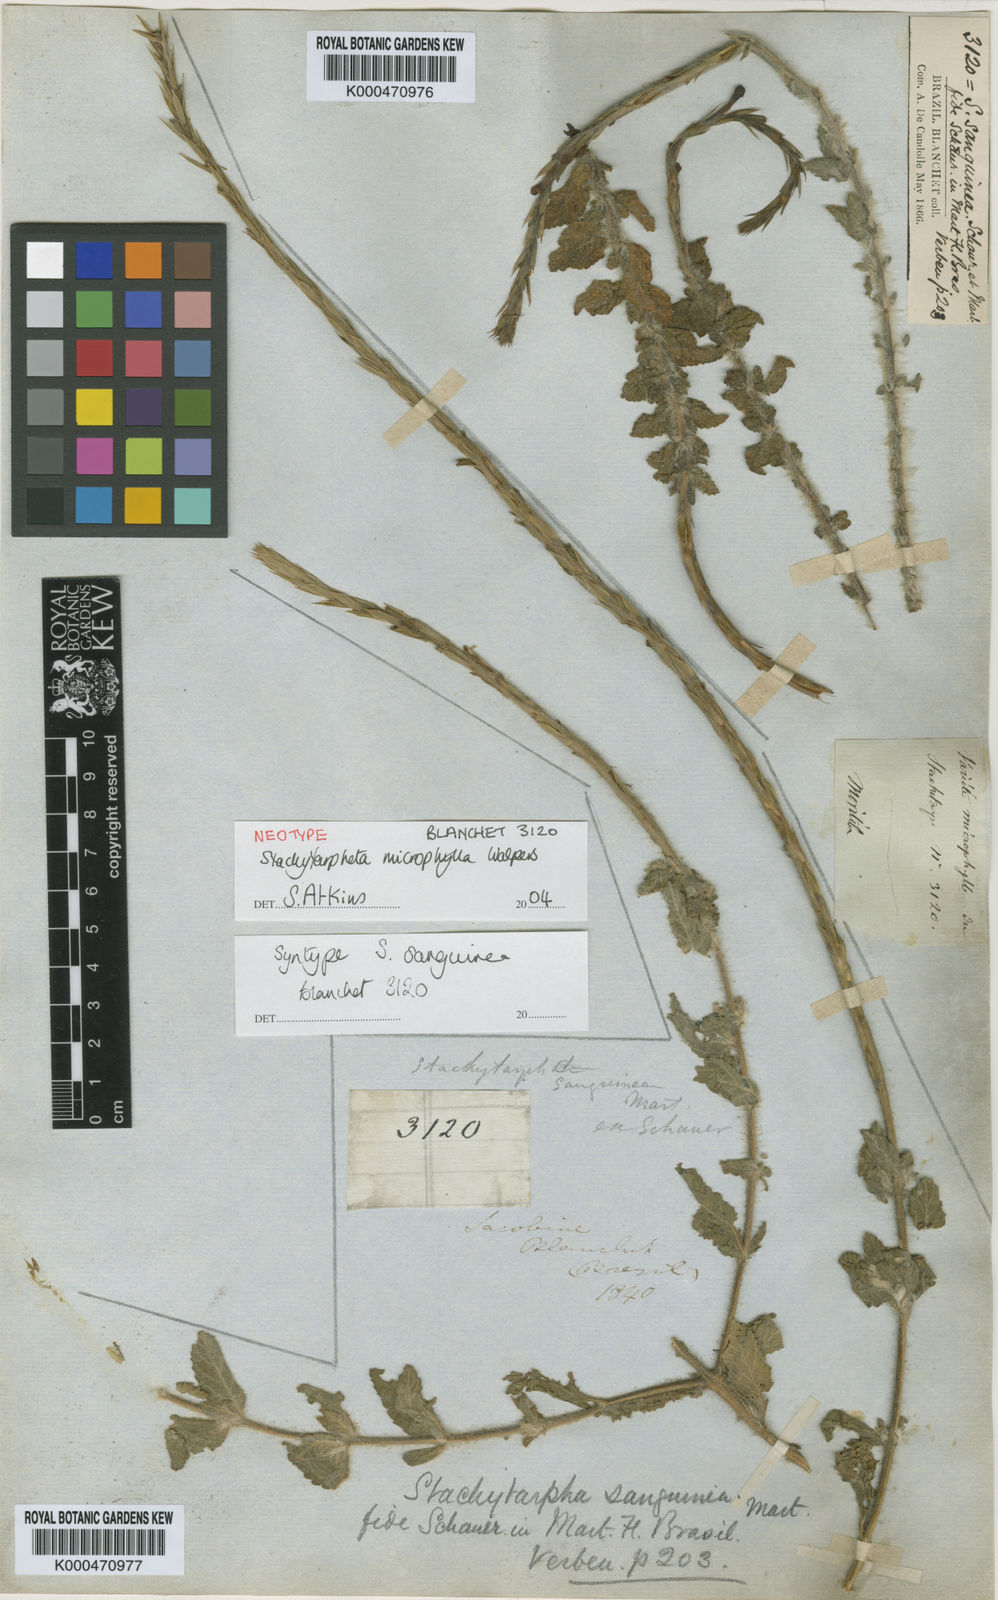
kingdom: Plantae
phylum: Tracheophyta
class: Magnoliopsida
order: Lamiales
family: Verbenaceae
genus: Stachytarpheta
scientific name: Stachytarpheta microphylla
